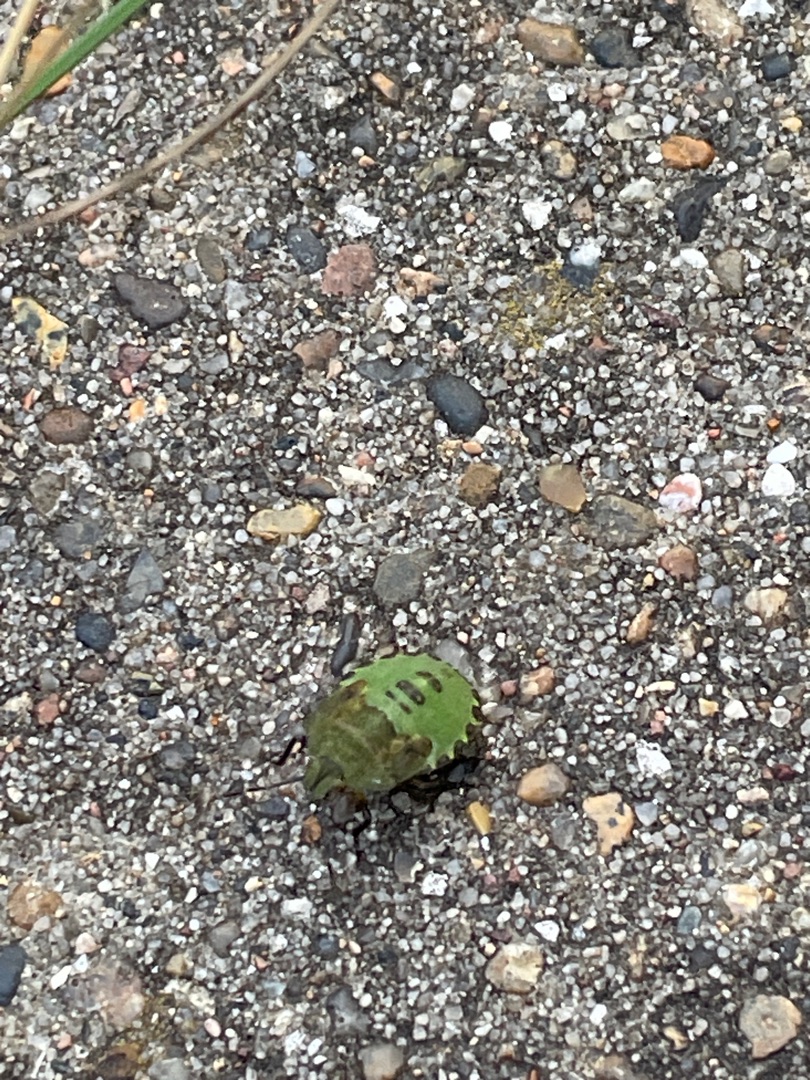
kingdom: Animalia
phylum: Arthropoda
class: Insecta
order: Hemiptera
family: Pentatomidae
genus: Palomena
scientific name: Palomena prasina
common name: Grøn bredtæge
